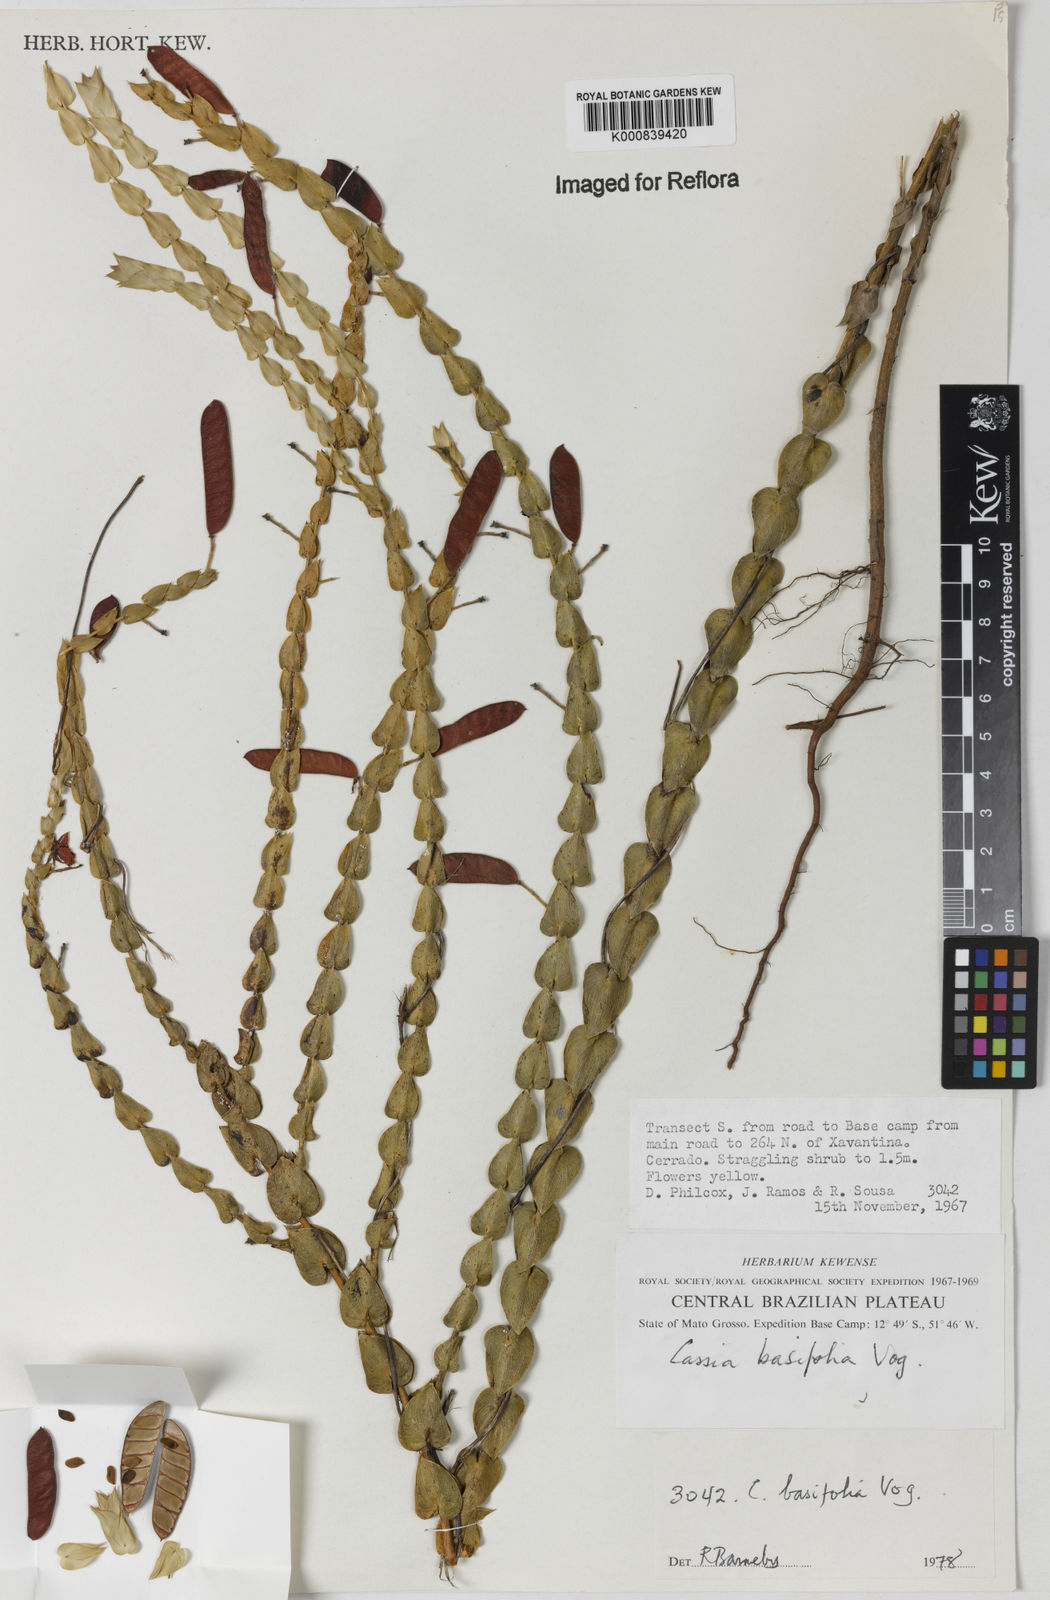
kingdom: Plantae
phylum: Tracheophyta
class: Magnoliopsida
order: Fabales
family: Fabaceae
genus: Chamaecrista
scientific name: Chamaecrista basifolia
